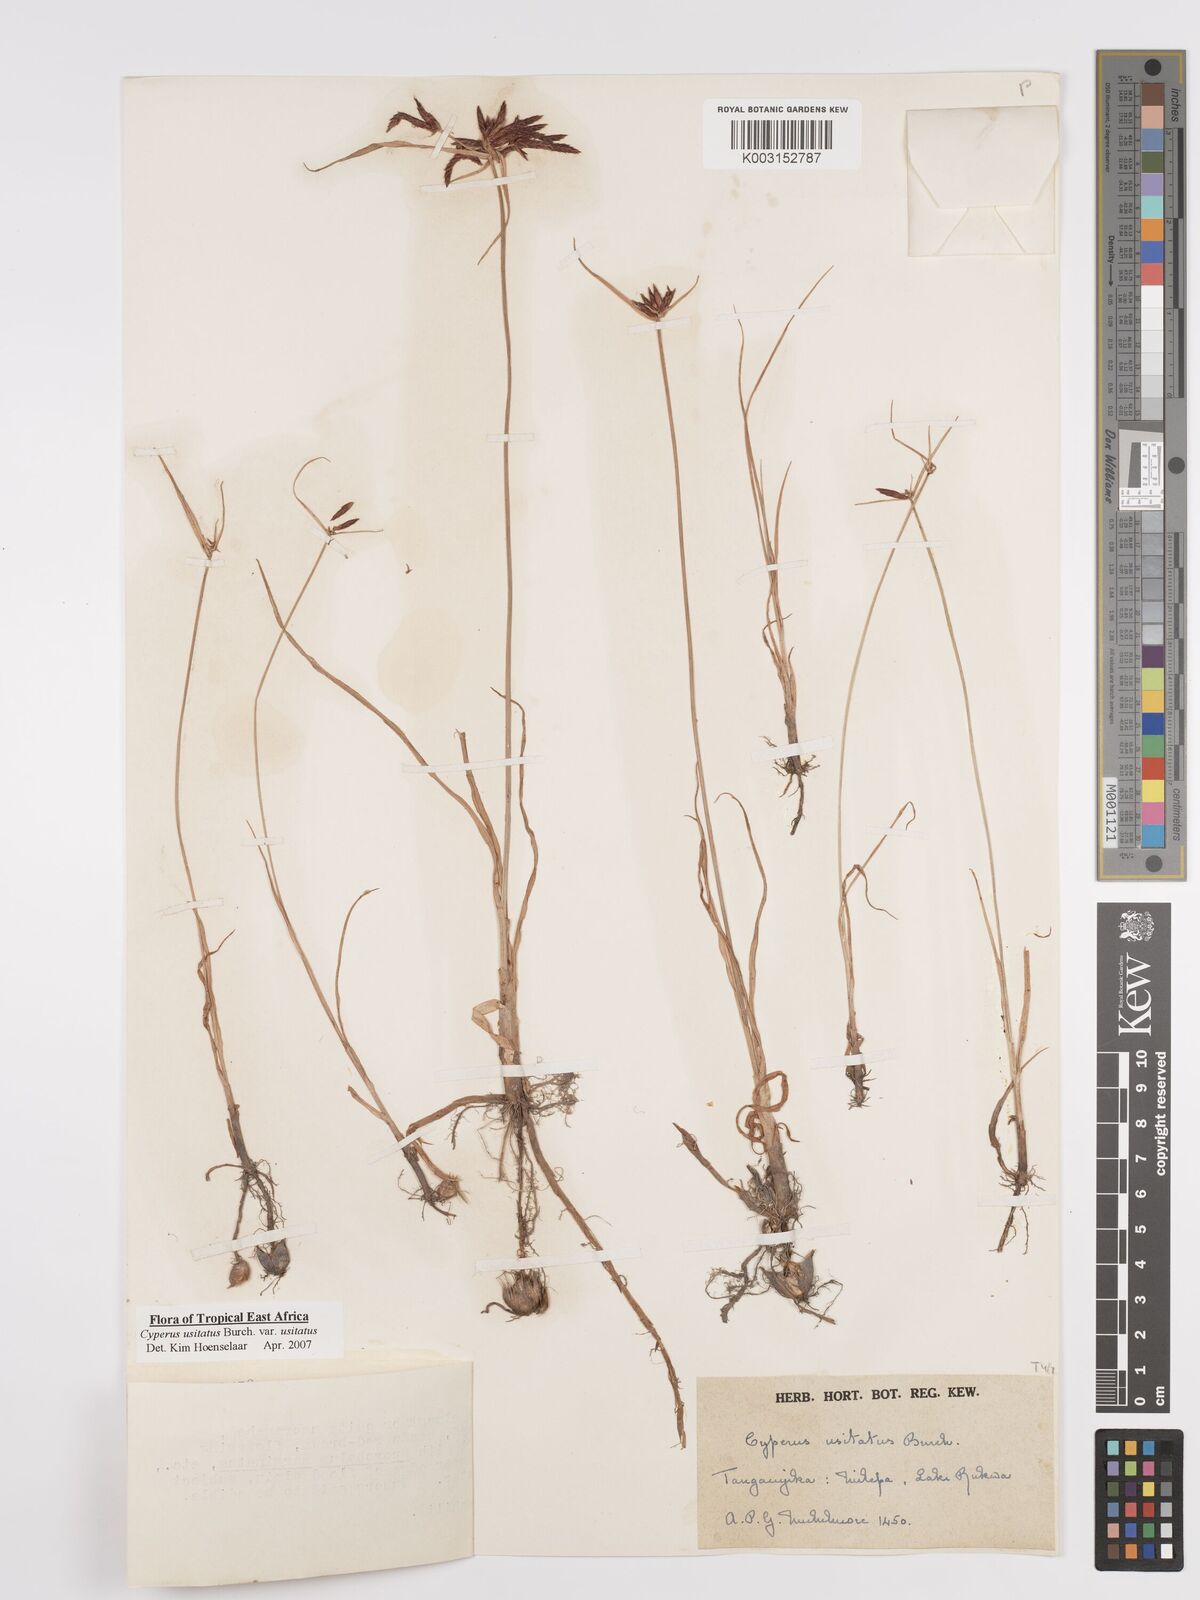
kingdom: Plantae
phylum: Tracheophyta
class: Liliopsida
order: Poales
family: Cyperaceae
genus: Cyperus
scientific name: Cyperus usitatus
